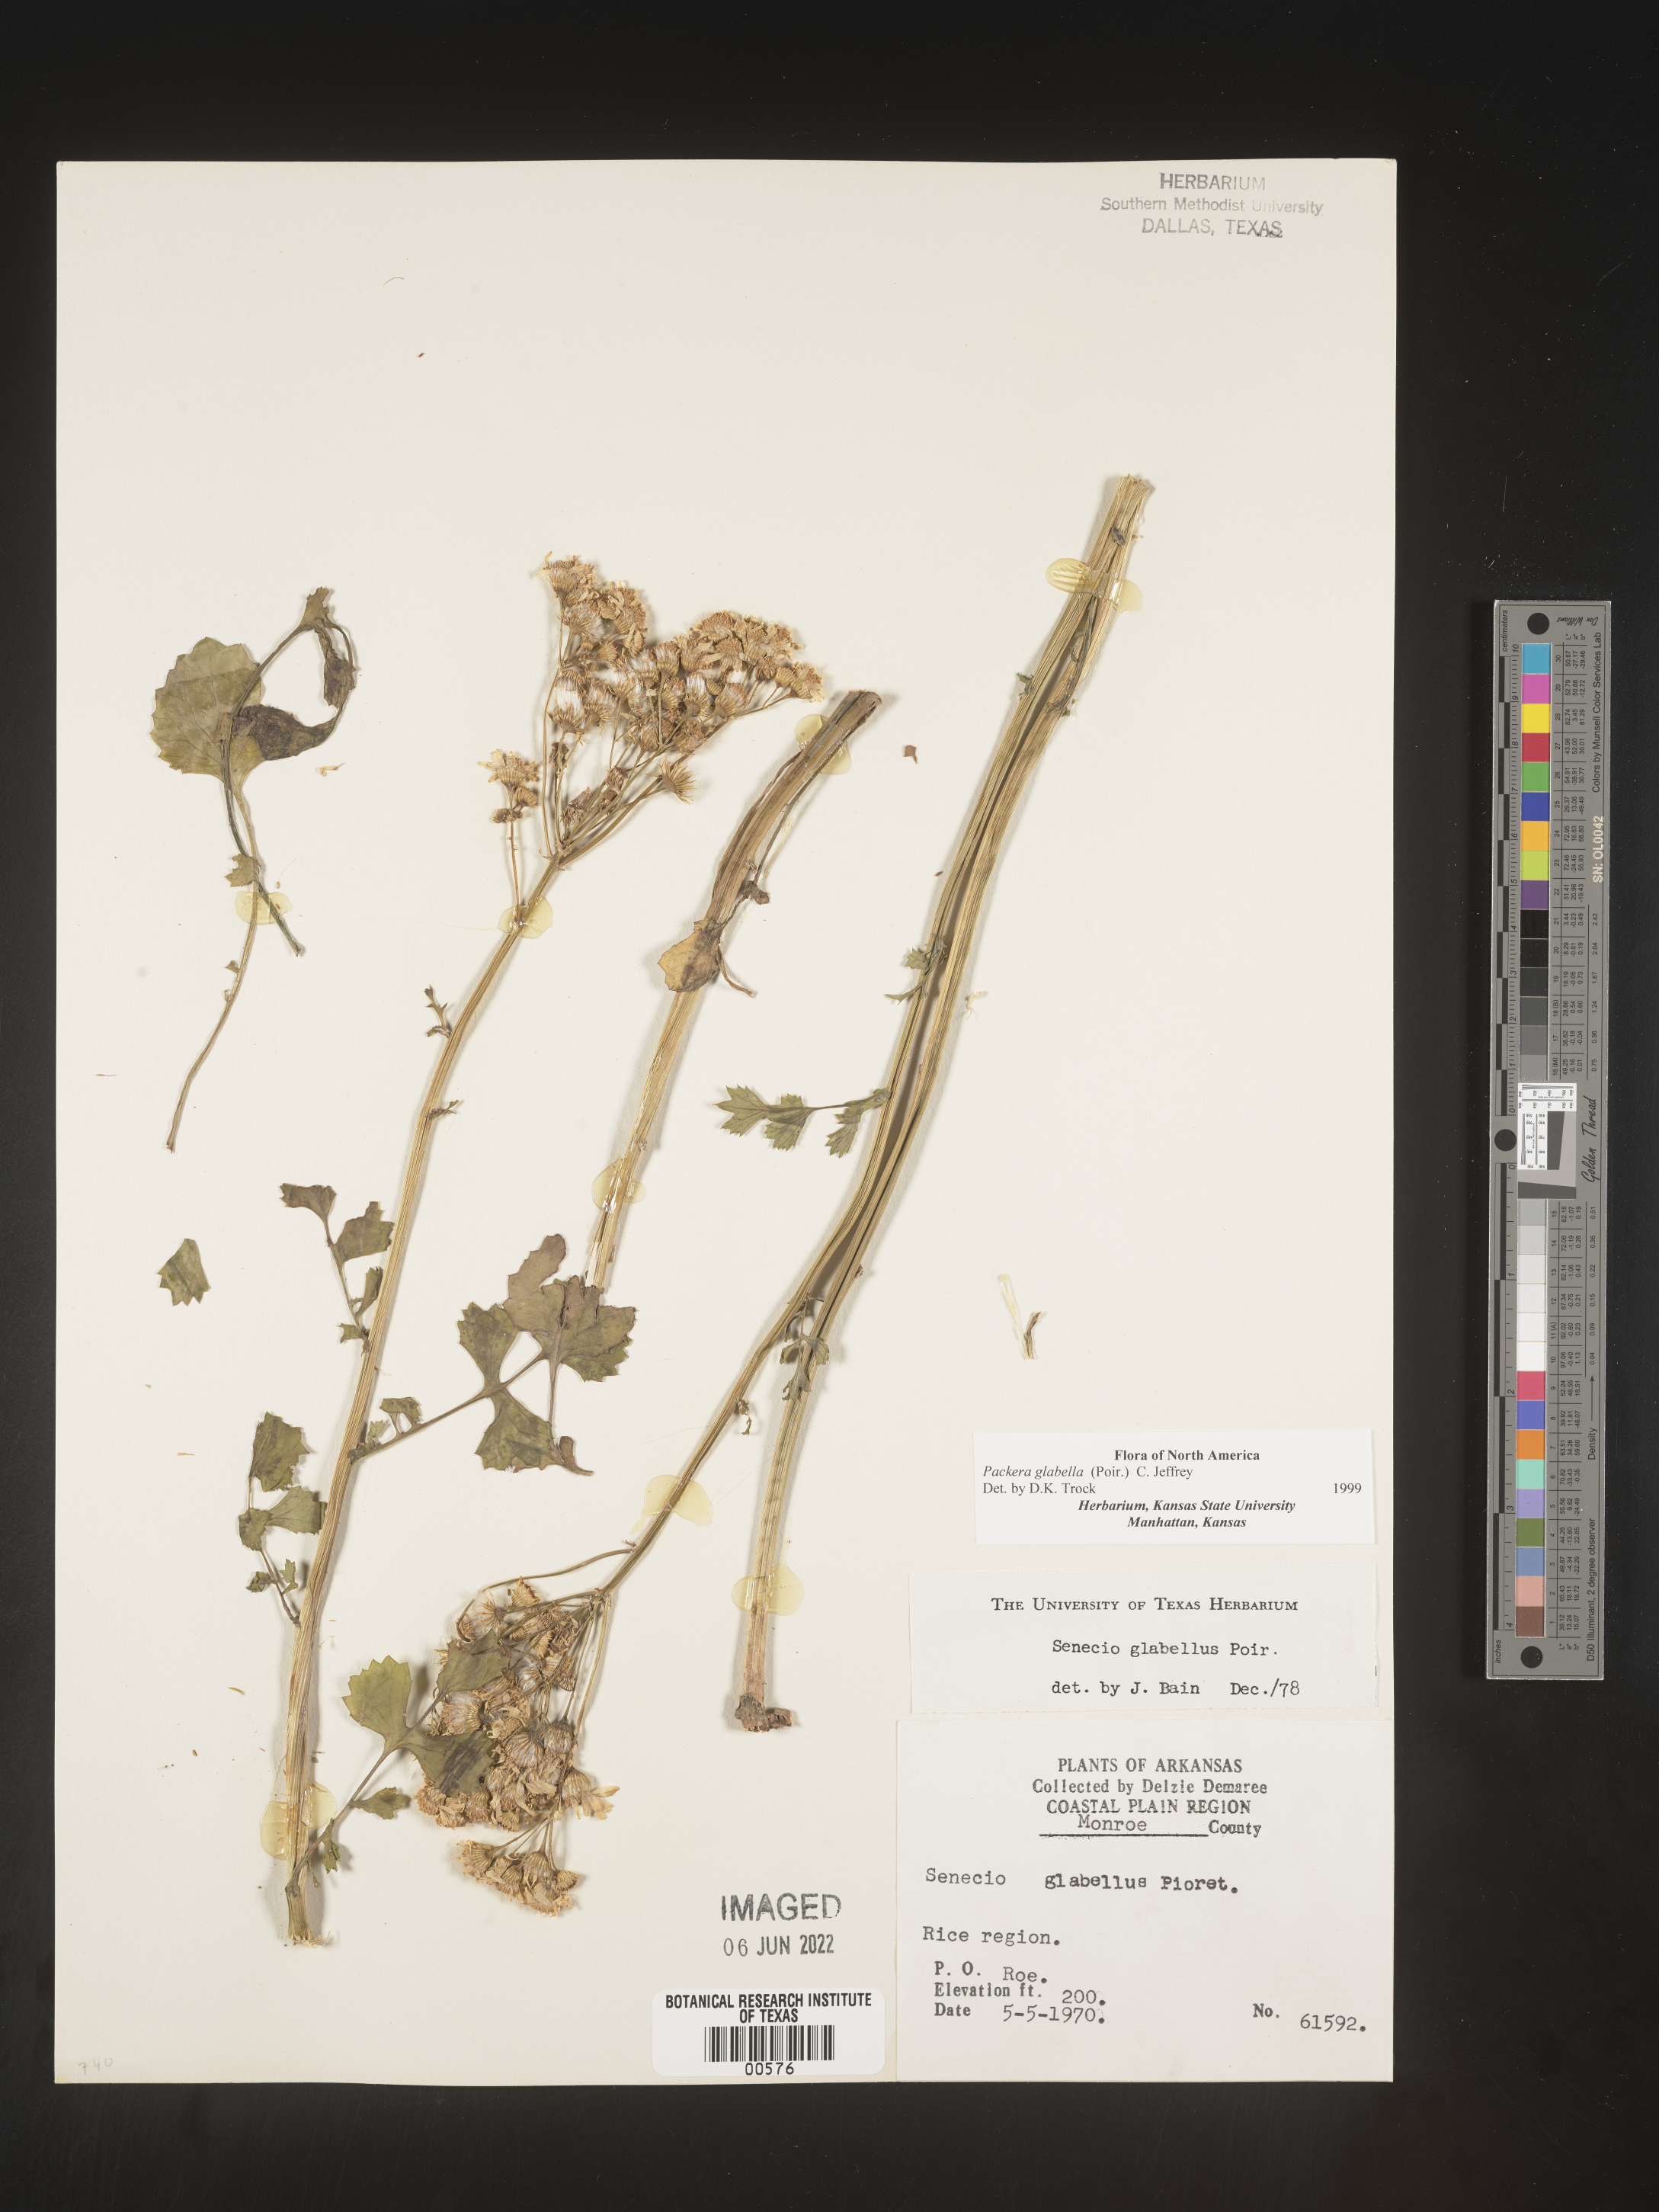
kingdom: Plantae
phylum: Tracheophyta
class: Magnoliopsida
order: Asterales
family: Asteraceae
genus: Packera
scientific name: Packera glabella
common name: Butterweed
